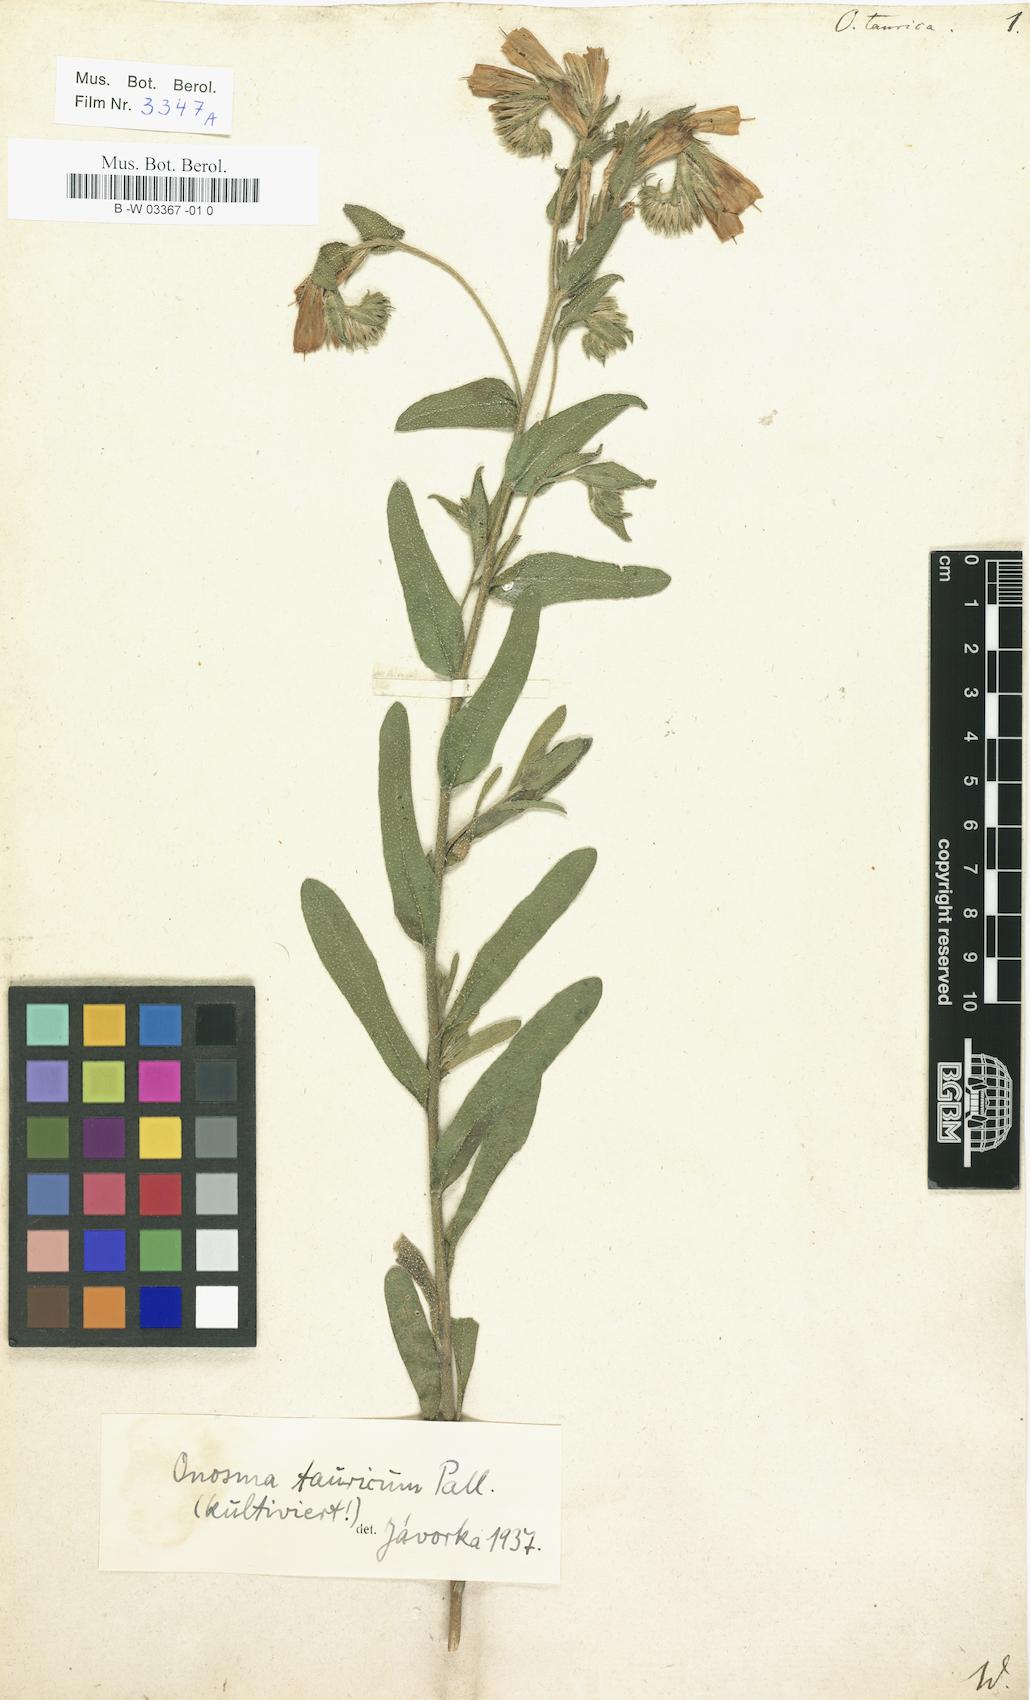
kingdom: Plantae
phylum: Tracheophyta
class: Magnoliopsida
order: Boraginales
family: Boraginaceae
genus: Onosma
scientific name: Onosma taurica
